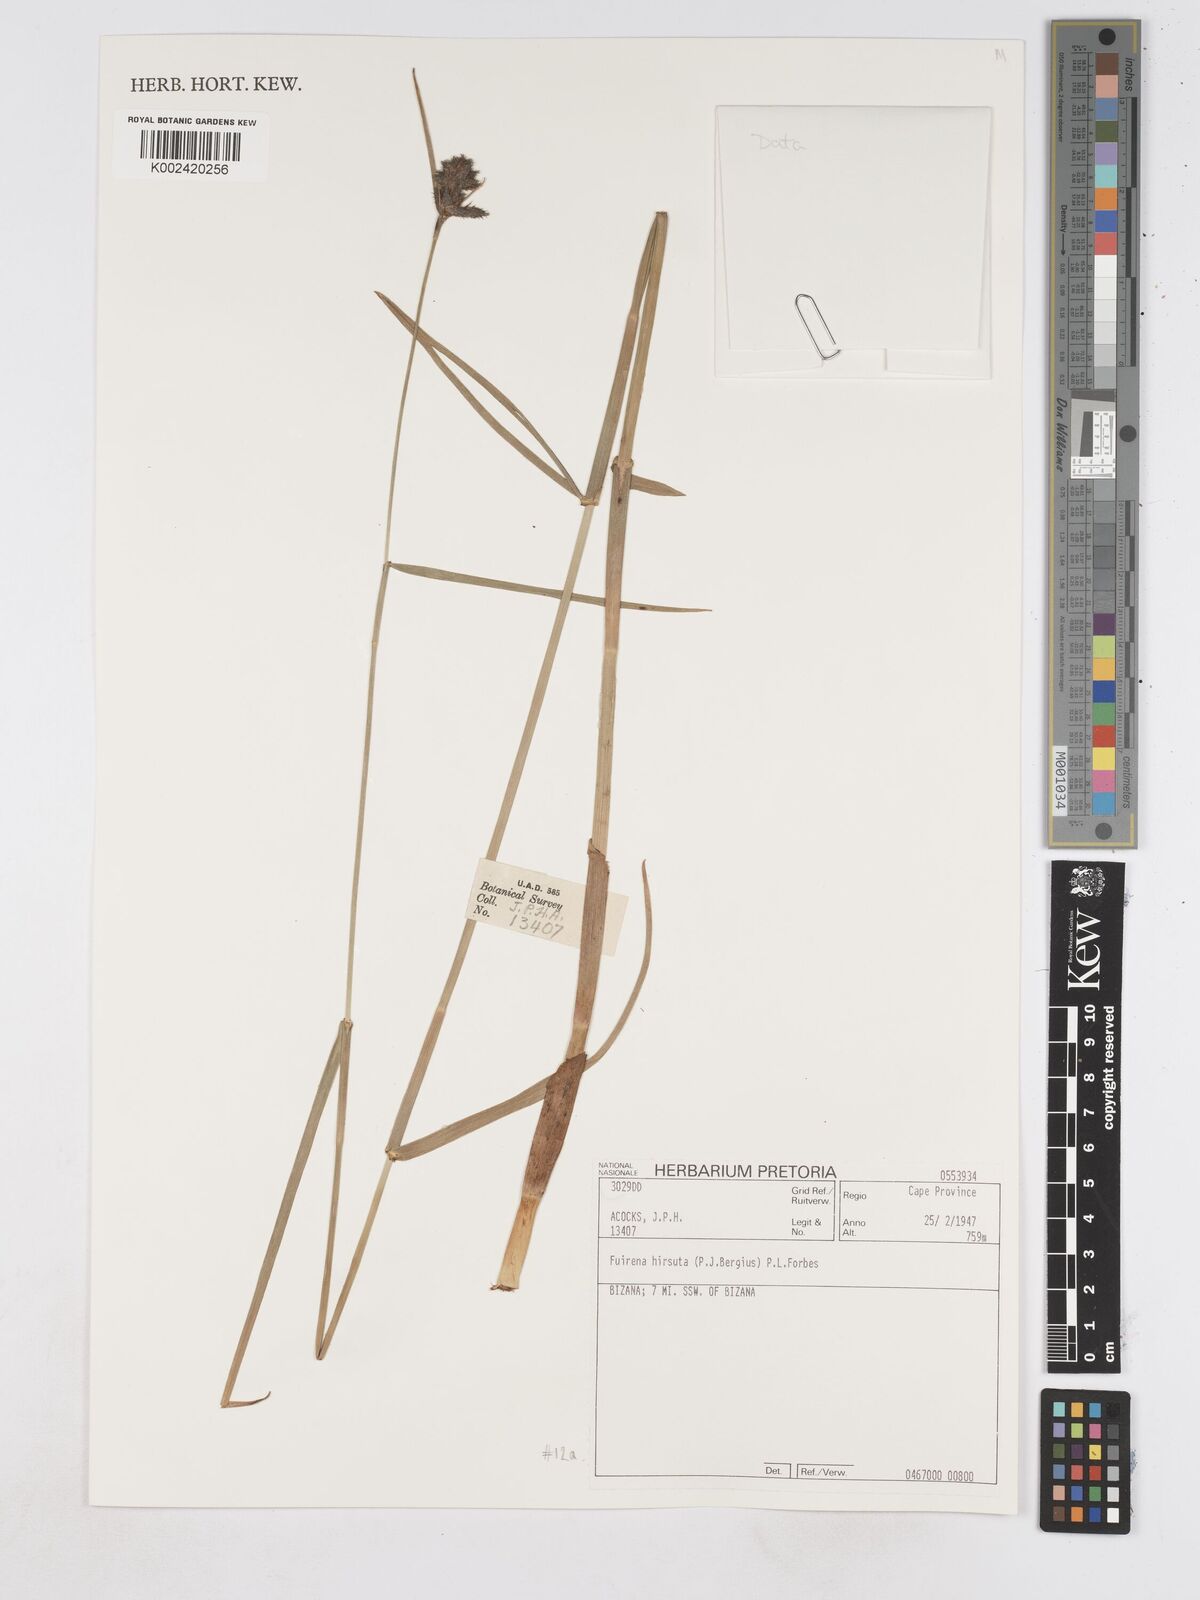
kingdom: Plantae
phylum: Tracheophyta
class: Liliopsida
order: Poales
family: Cyperaceae
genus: Fuirena
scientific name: Fuirena hirsuta
